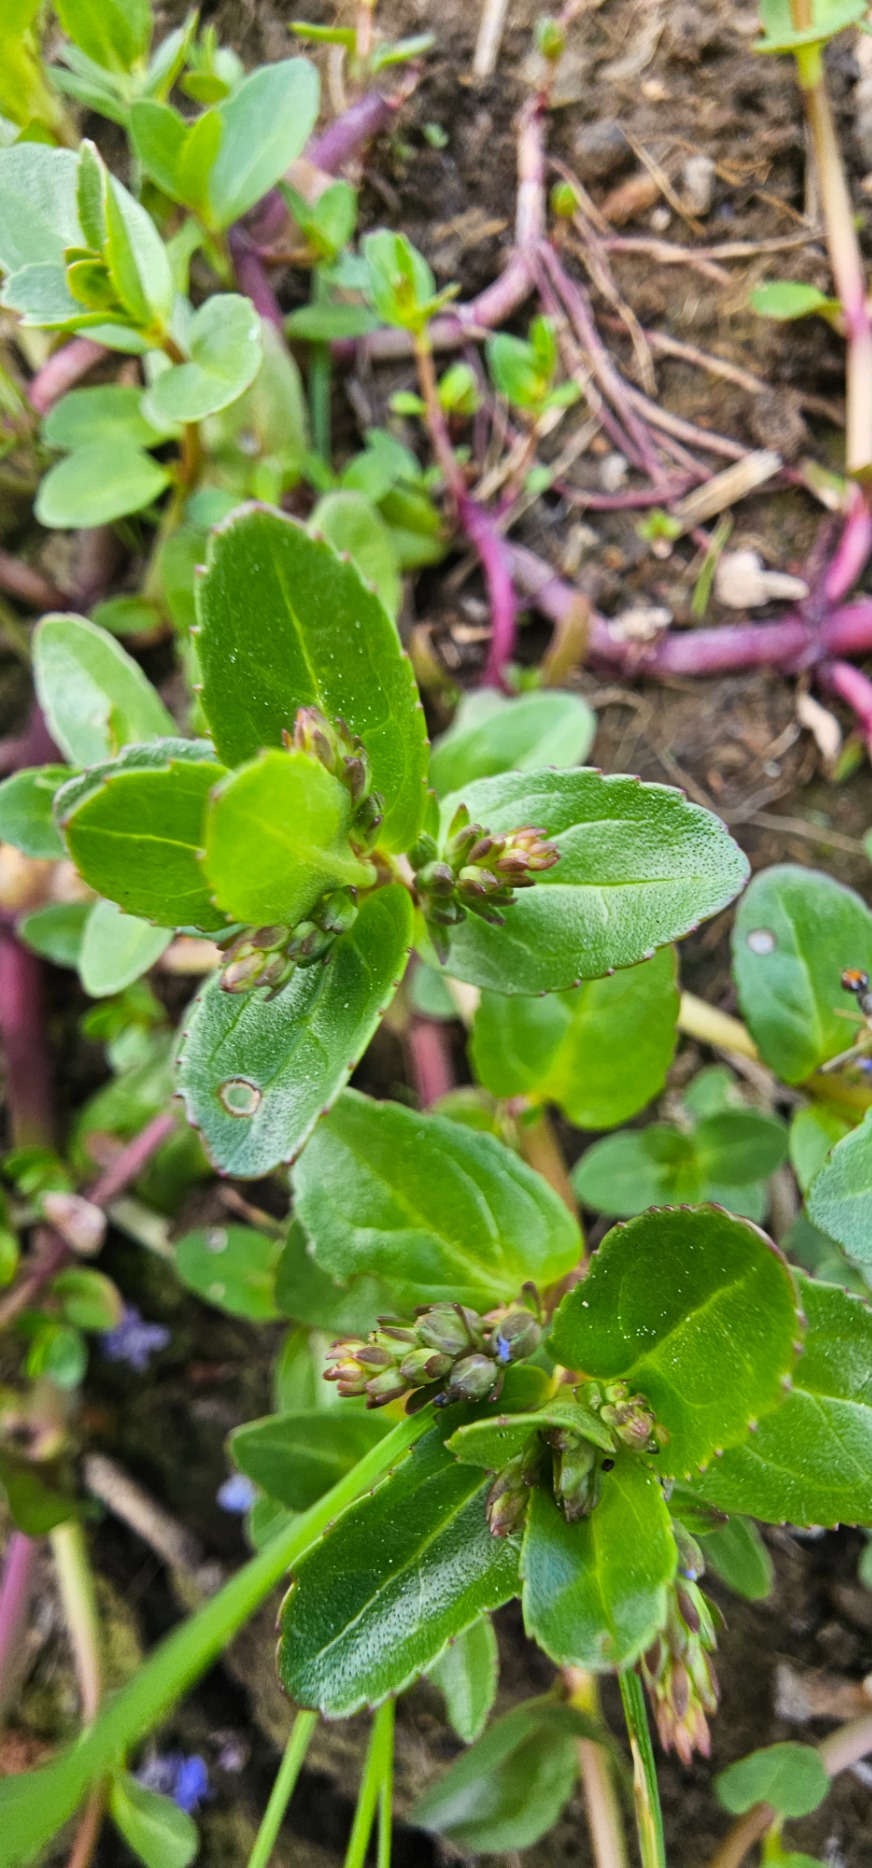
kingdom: Plantae
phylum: Tracheophyta
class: Magnoliopsida
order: Lamiales
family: Plantaginaceae
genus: Veronica
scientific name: Veronica beccabunga
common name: Tykbladet ærenpris
